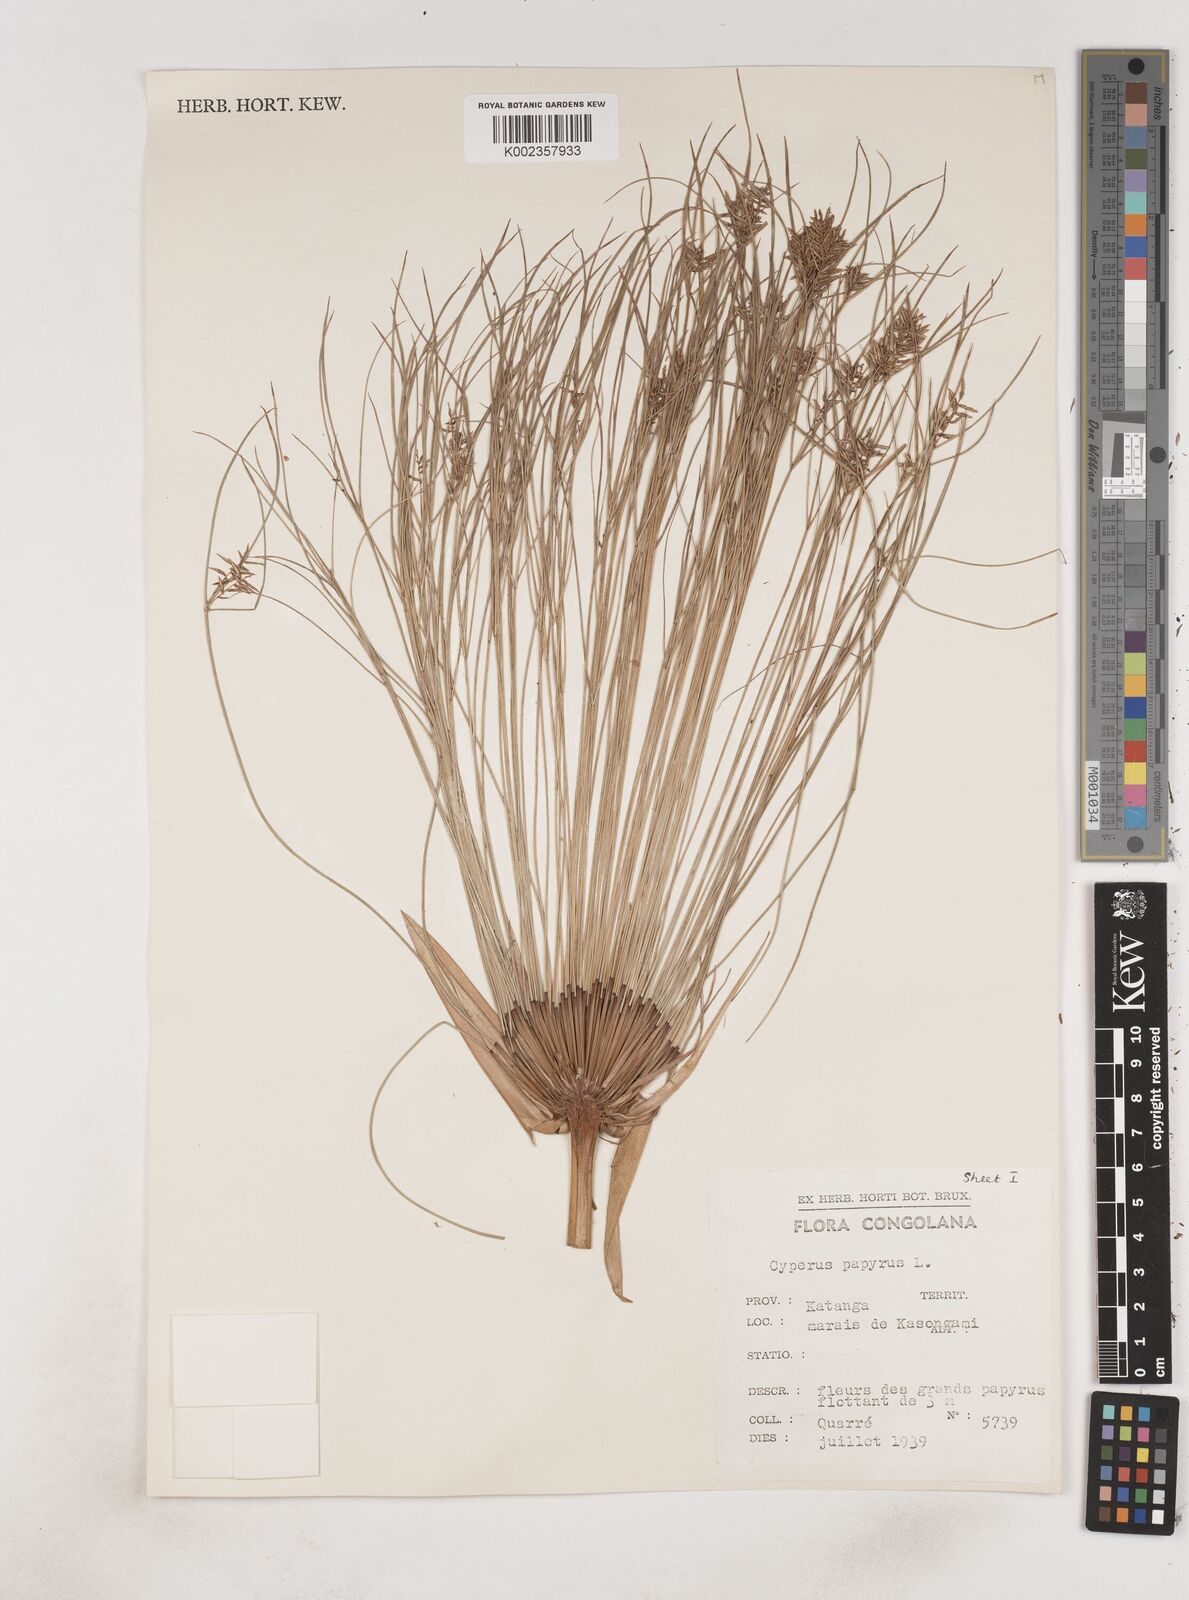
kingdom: Plantae
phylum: Tracheophyta
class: Liliopsida
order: Poales
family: Cyperaceae
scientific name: Cyperaceae
